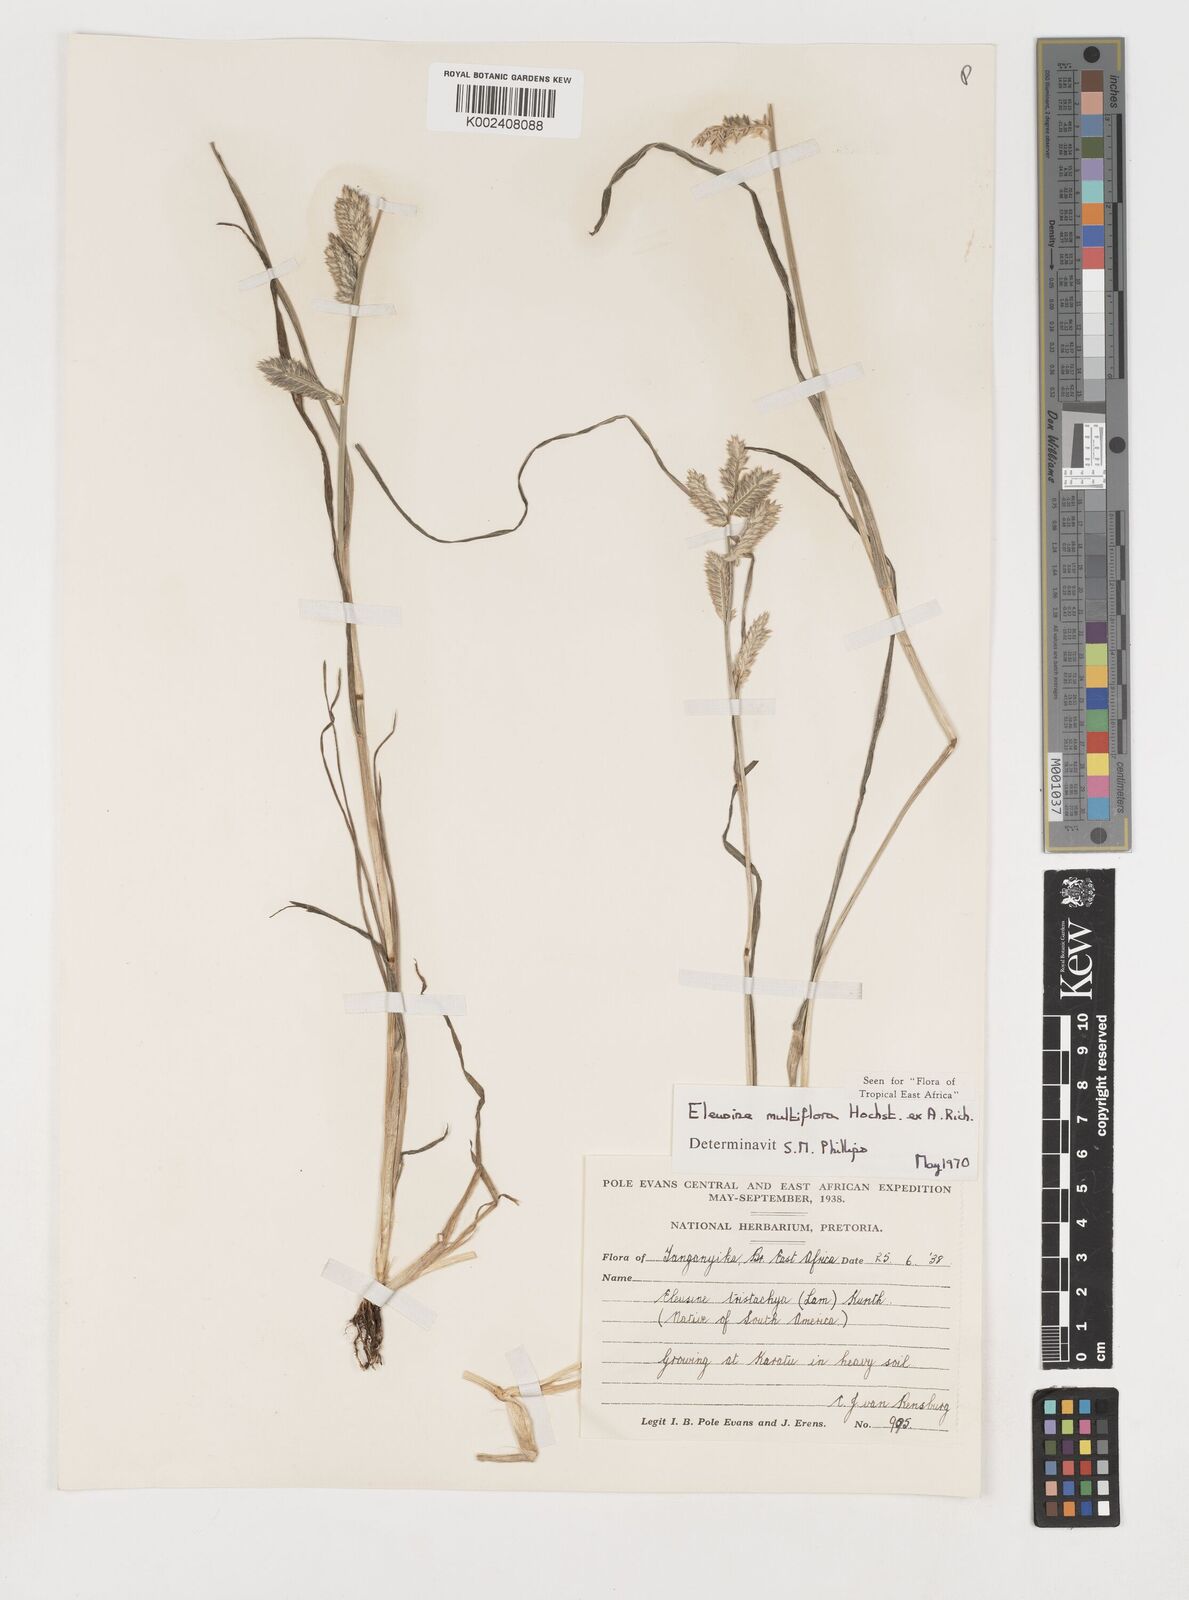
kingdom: Plantae
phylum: Tracheophyta
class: Liliopsida
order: Poales
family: Poaceae
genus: Eleusine
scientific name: Eleusine multiflora
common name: Fat-spiked yard-grass
